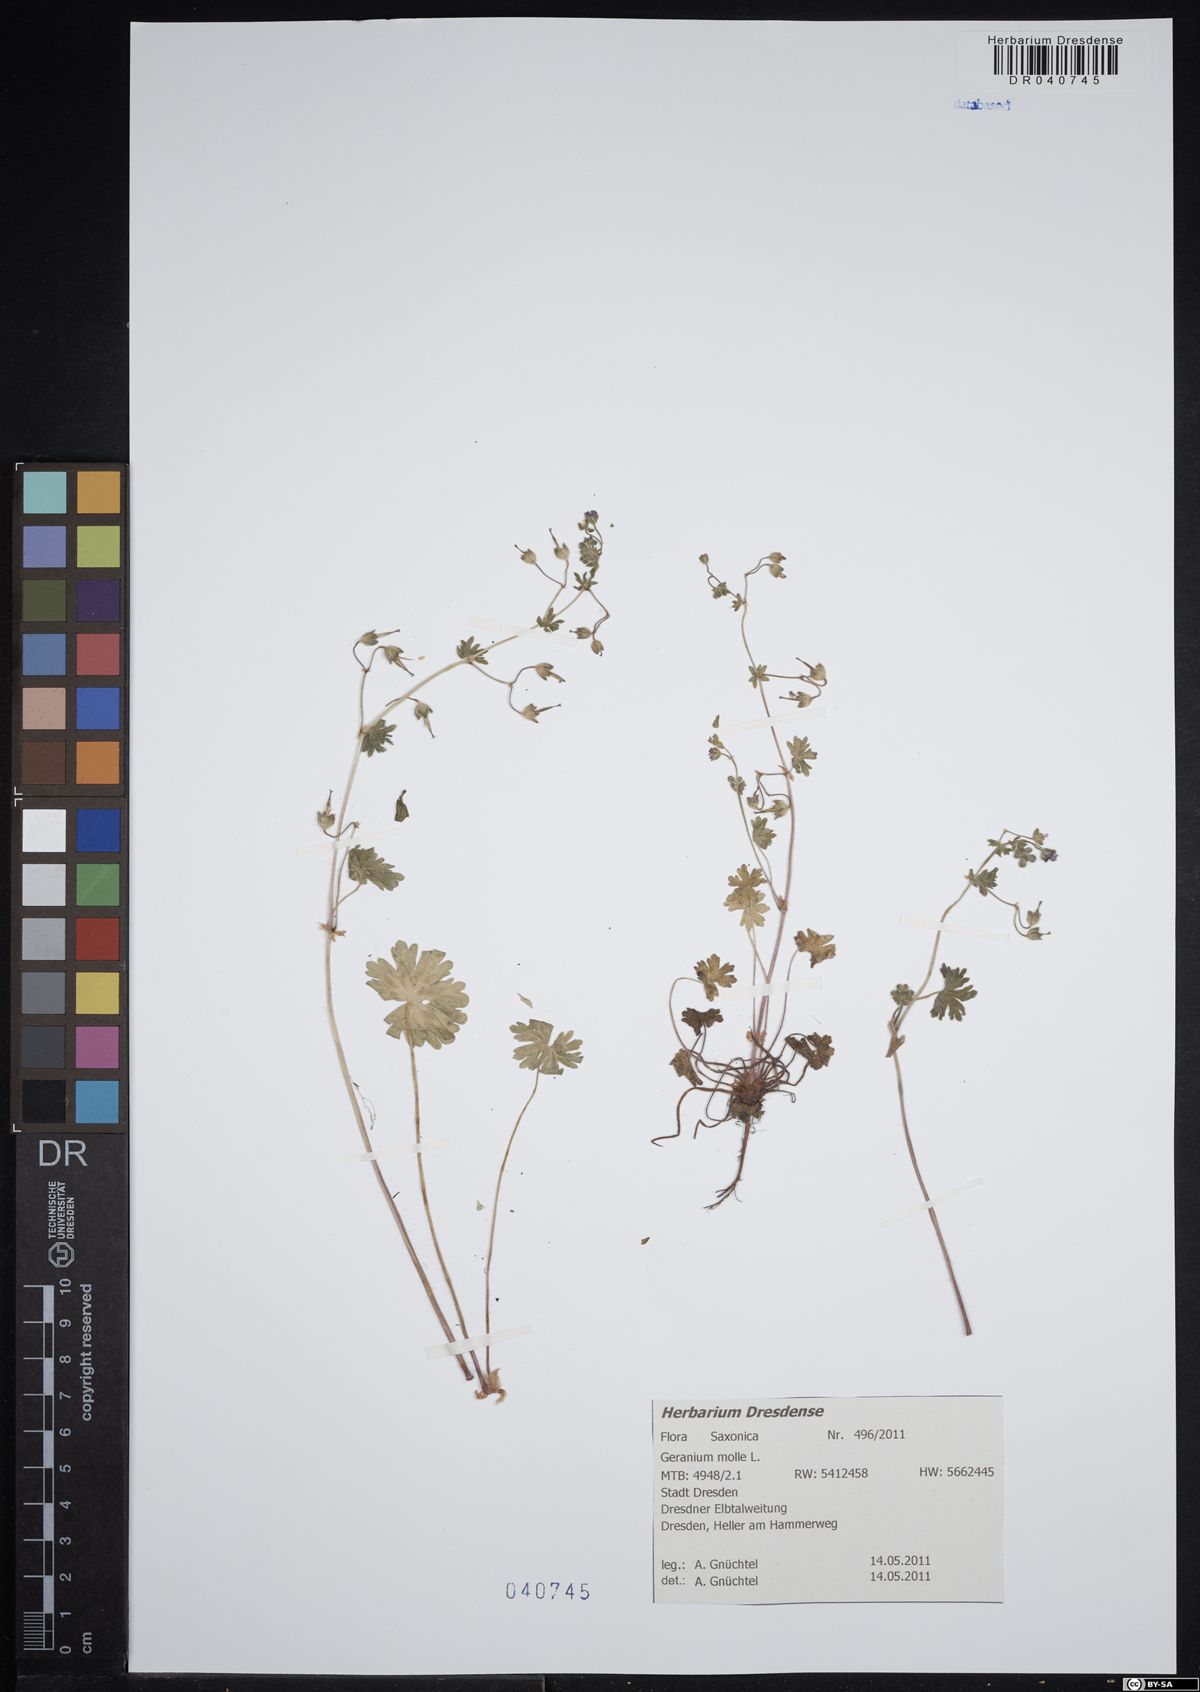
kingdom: Plantae
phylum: Tracheophyta
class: Magnoliopsida
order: Geraniales
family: Geraniaceae
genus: Geranium
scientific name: Geranium molle
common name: Dove's-foot crane's-bill
